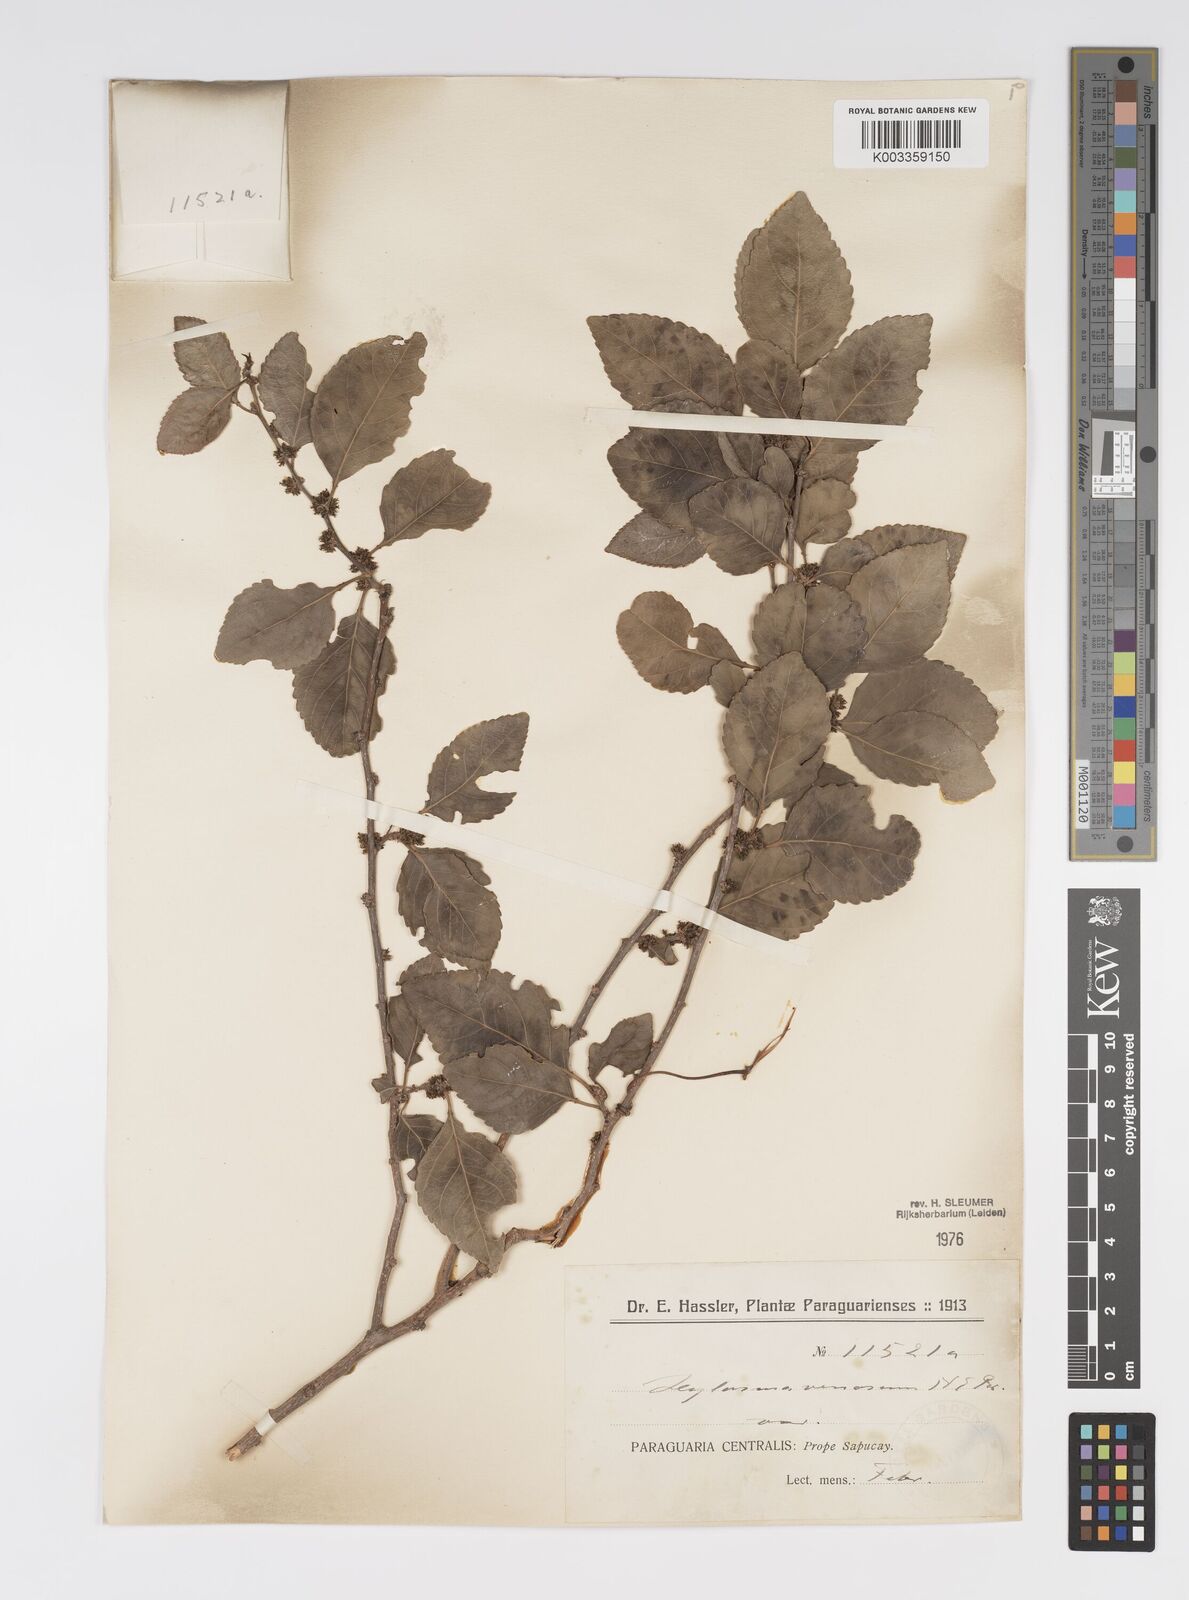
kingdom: Plantae
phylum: Tracheophyta
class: Magnoliopsida
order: Malpighiales
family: Salicaceae
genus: Xylosma
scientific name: Xylosma venosa
